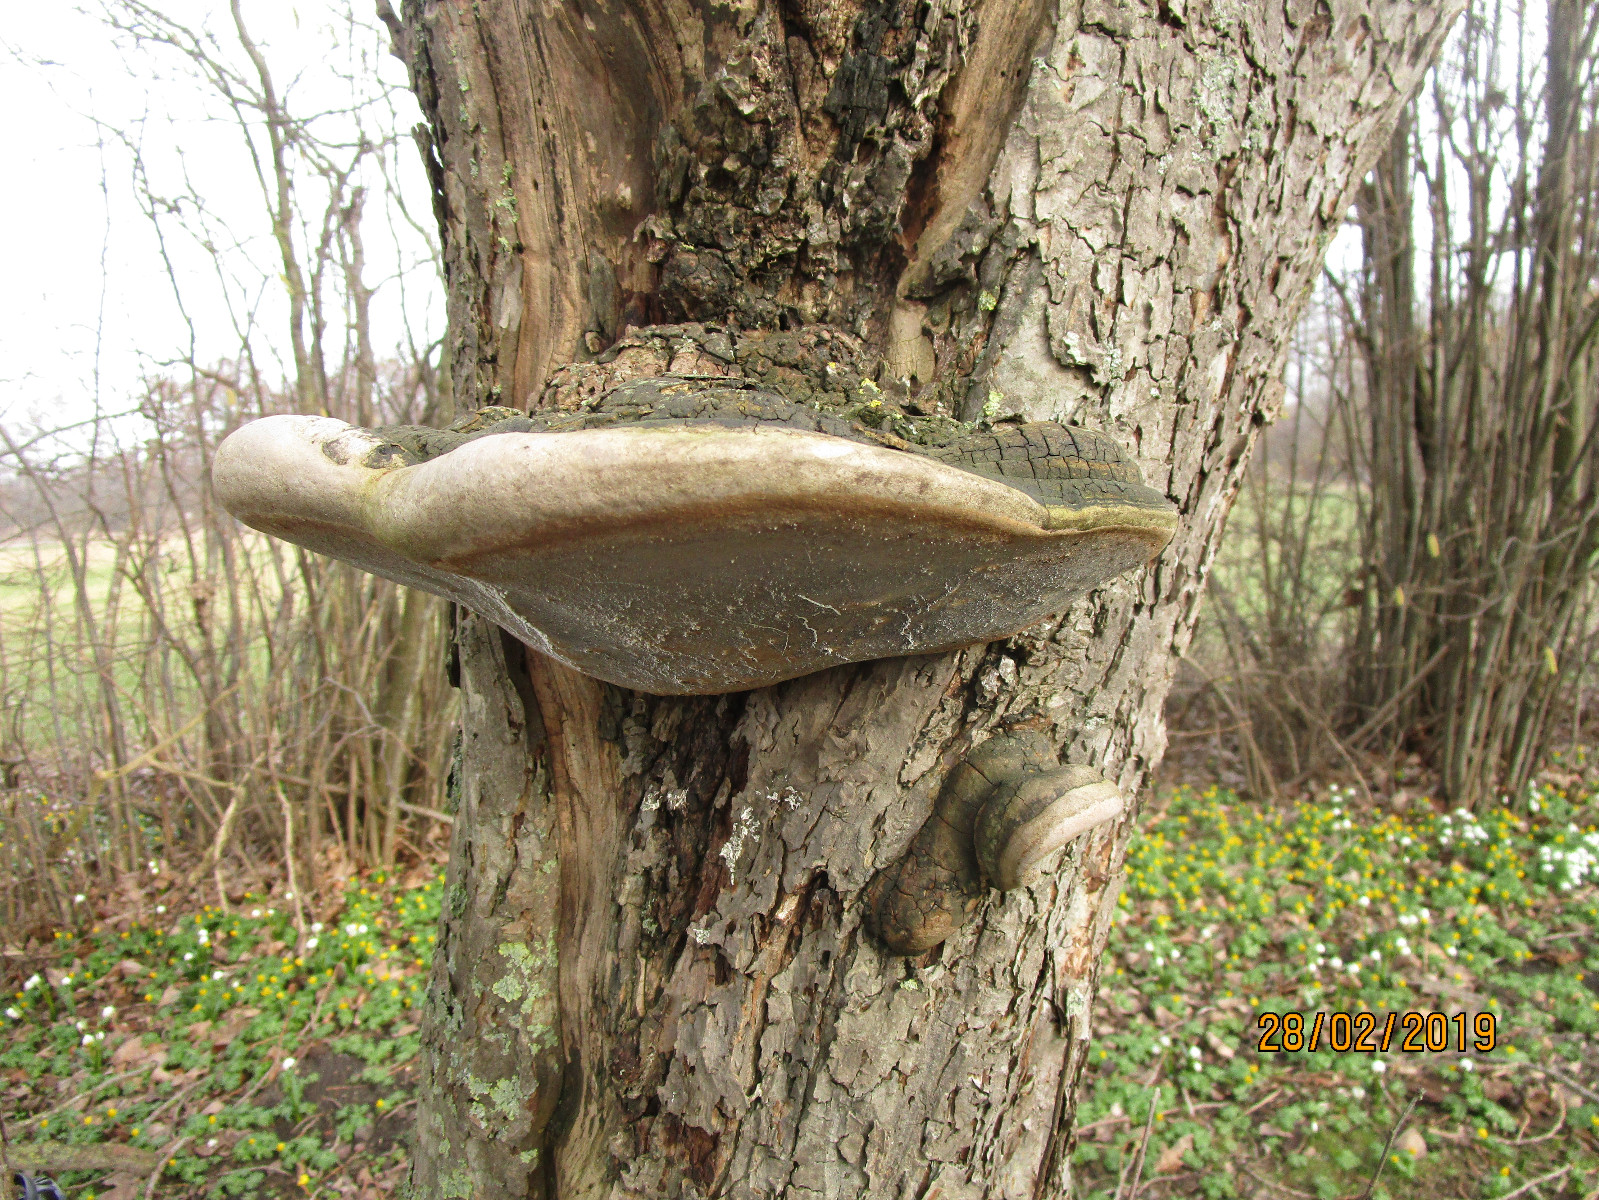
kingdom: Fungi
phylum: Basidiomycota
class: Agaricomycetes
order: Hymenochaetales
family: Hymenochaetaceae
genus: Phellinus
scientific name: Phellinus igniarius
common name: elle-ildporesvamp
